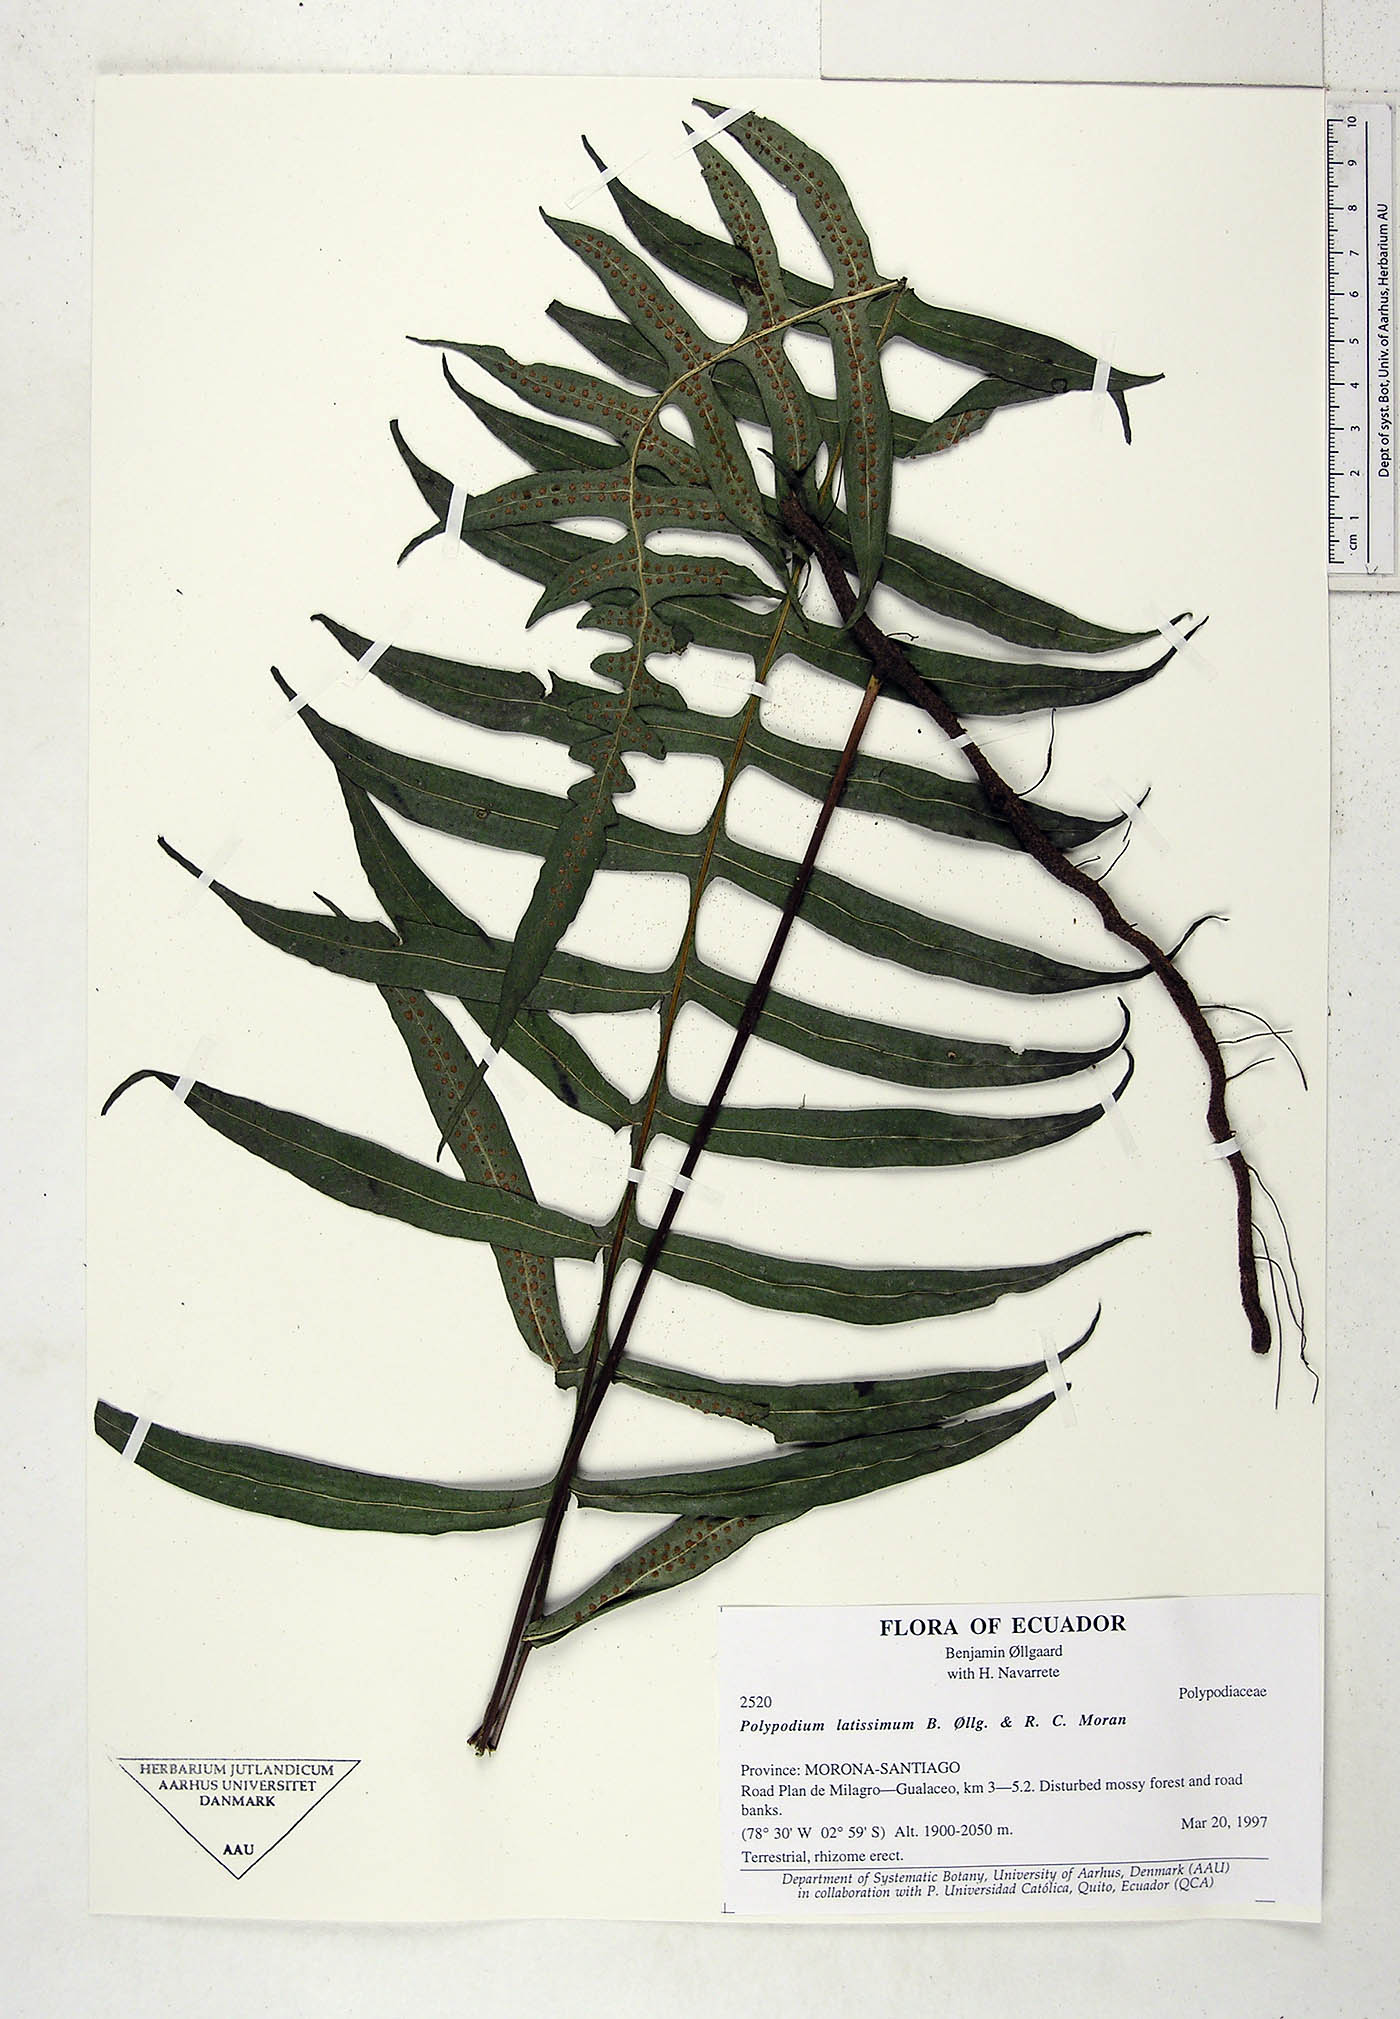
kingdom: Plantae
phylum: Tracheophyta
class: Polypodiopsida
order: Polypodiales
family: Polypodiaceae
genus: Serpocaulon
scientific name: Serpocaulon latissimum
